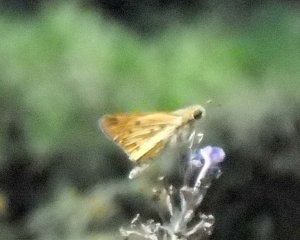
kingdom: Animalia
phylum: Arthropoda
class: Insecta
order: Lepidoptera
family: Hesperiidae
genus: Hylephila
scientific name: Hylephila phyleus
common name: Fiery Skipper
